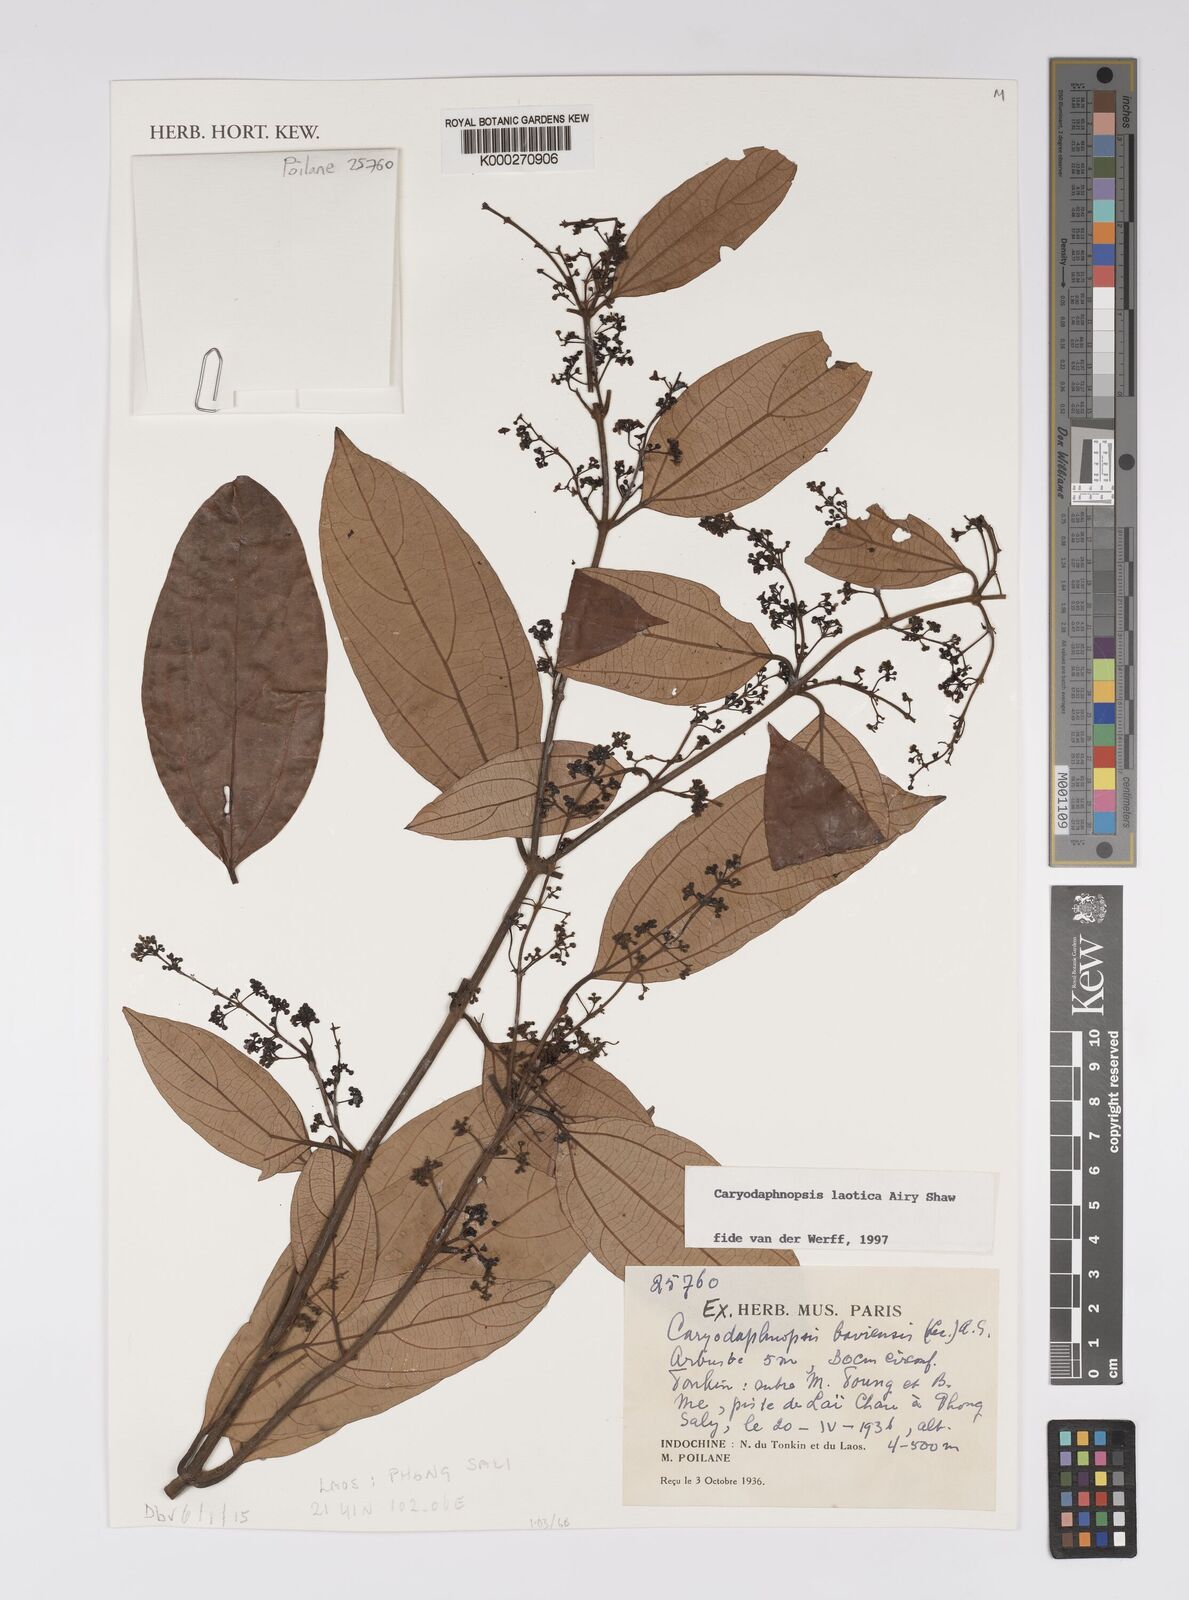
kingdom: Plantae
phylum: Tracheophyta
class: Magnoliopsida
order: Laurales
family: Lauraceae
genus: Caryodaphnopsis
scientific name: Caryodaphnopsis laotica
